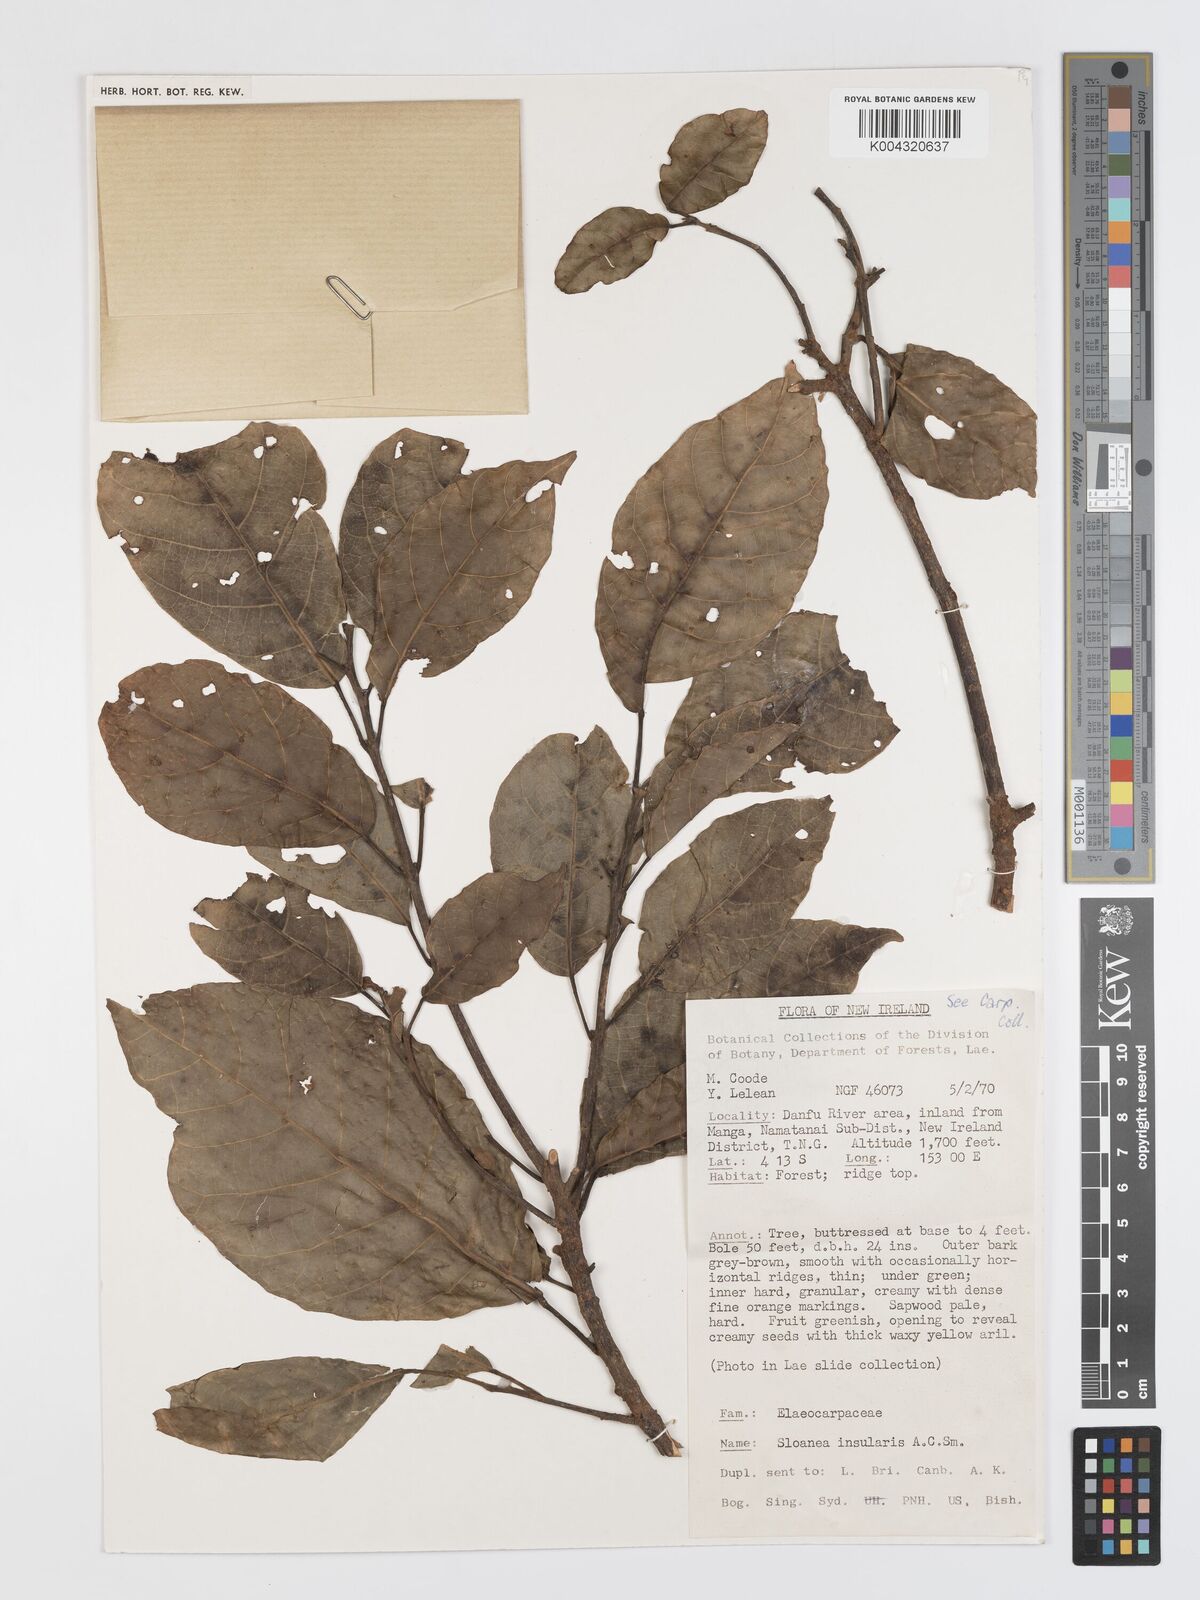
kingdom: Plantae
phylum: Tracheophyta
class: Magnoliopsida
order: Oxalidales
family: Elaeocarpaceae
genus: Sloanea
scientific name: Sloanea insularis
